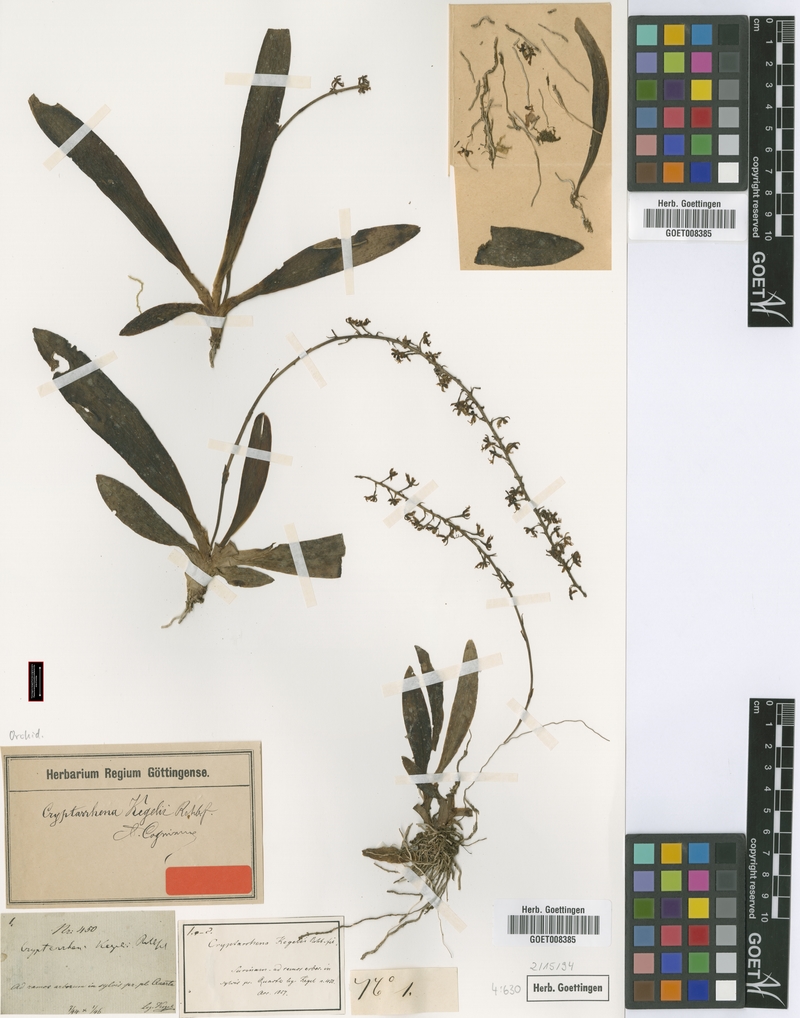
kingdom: Plantae
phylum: Tracheophyta
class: Liliopsida
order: Asparagales
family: Orchidaceae
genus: Cryptarrhena
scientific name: Cryptarrhena kegelii
